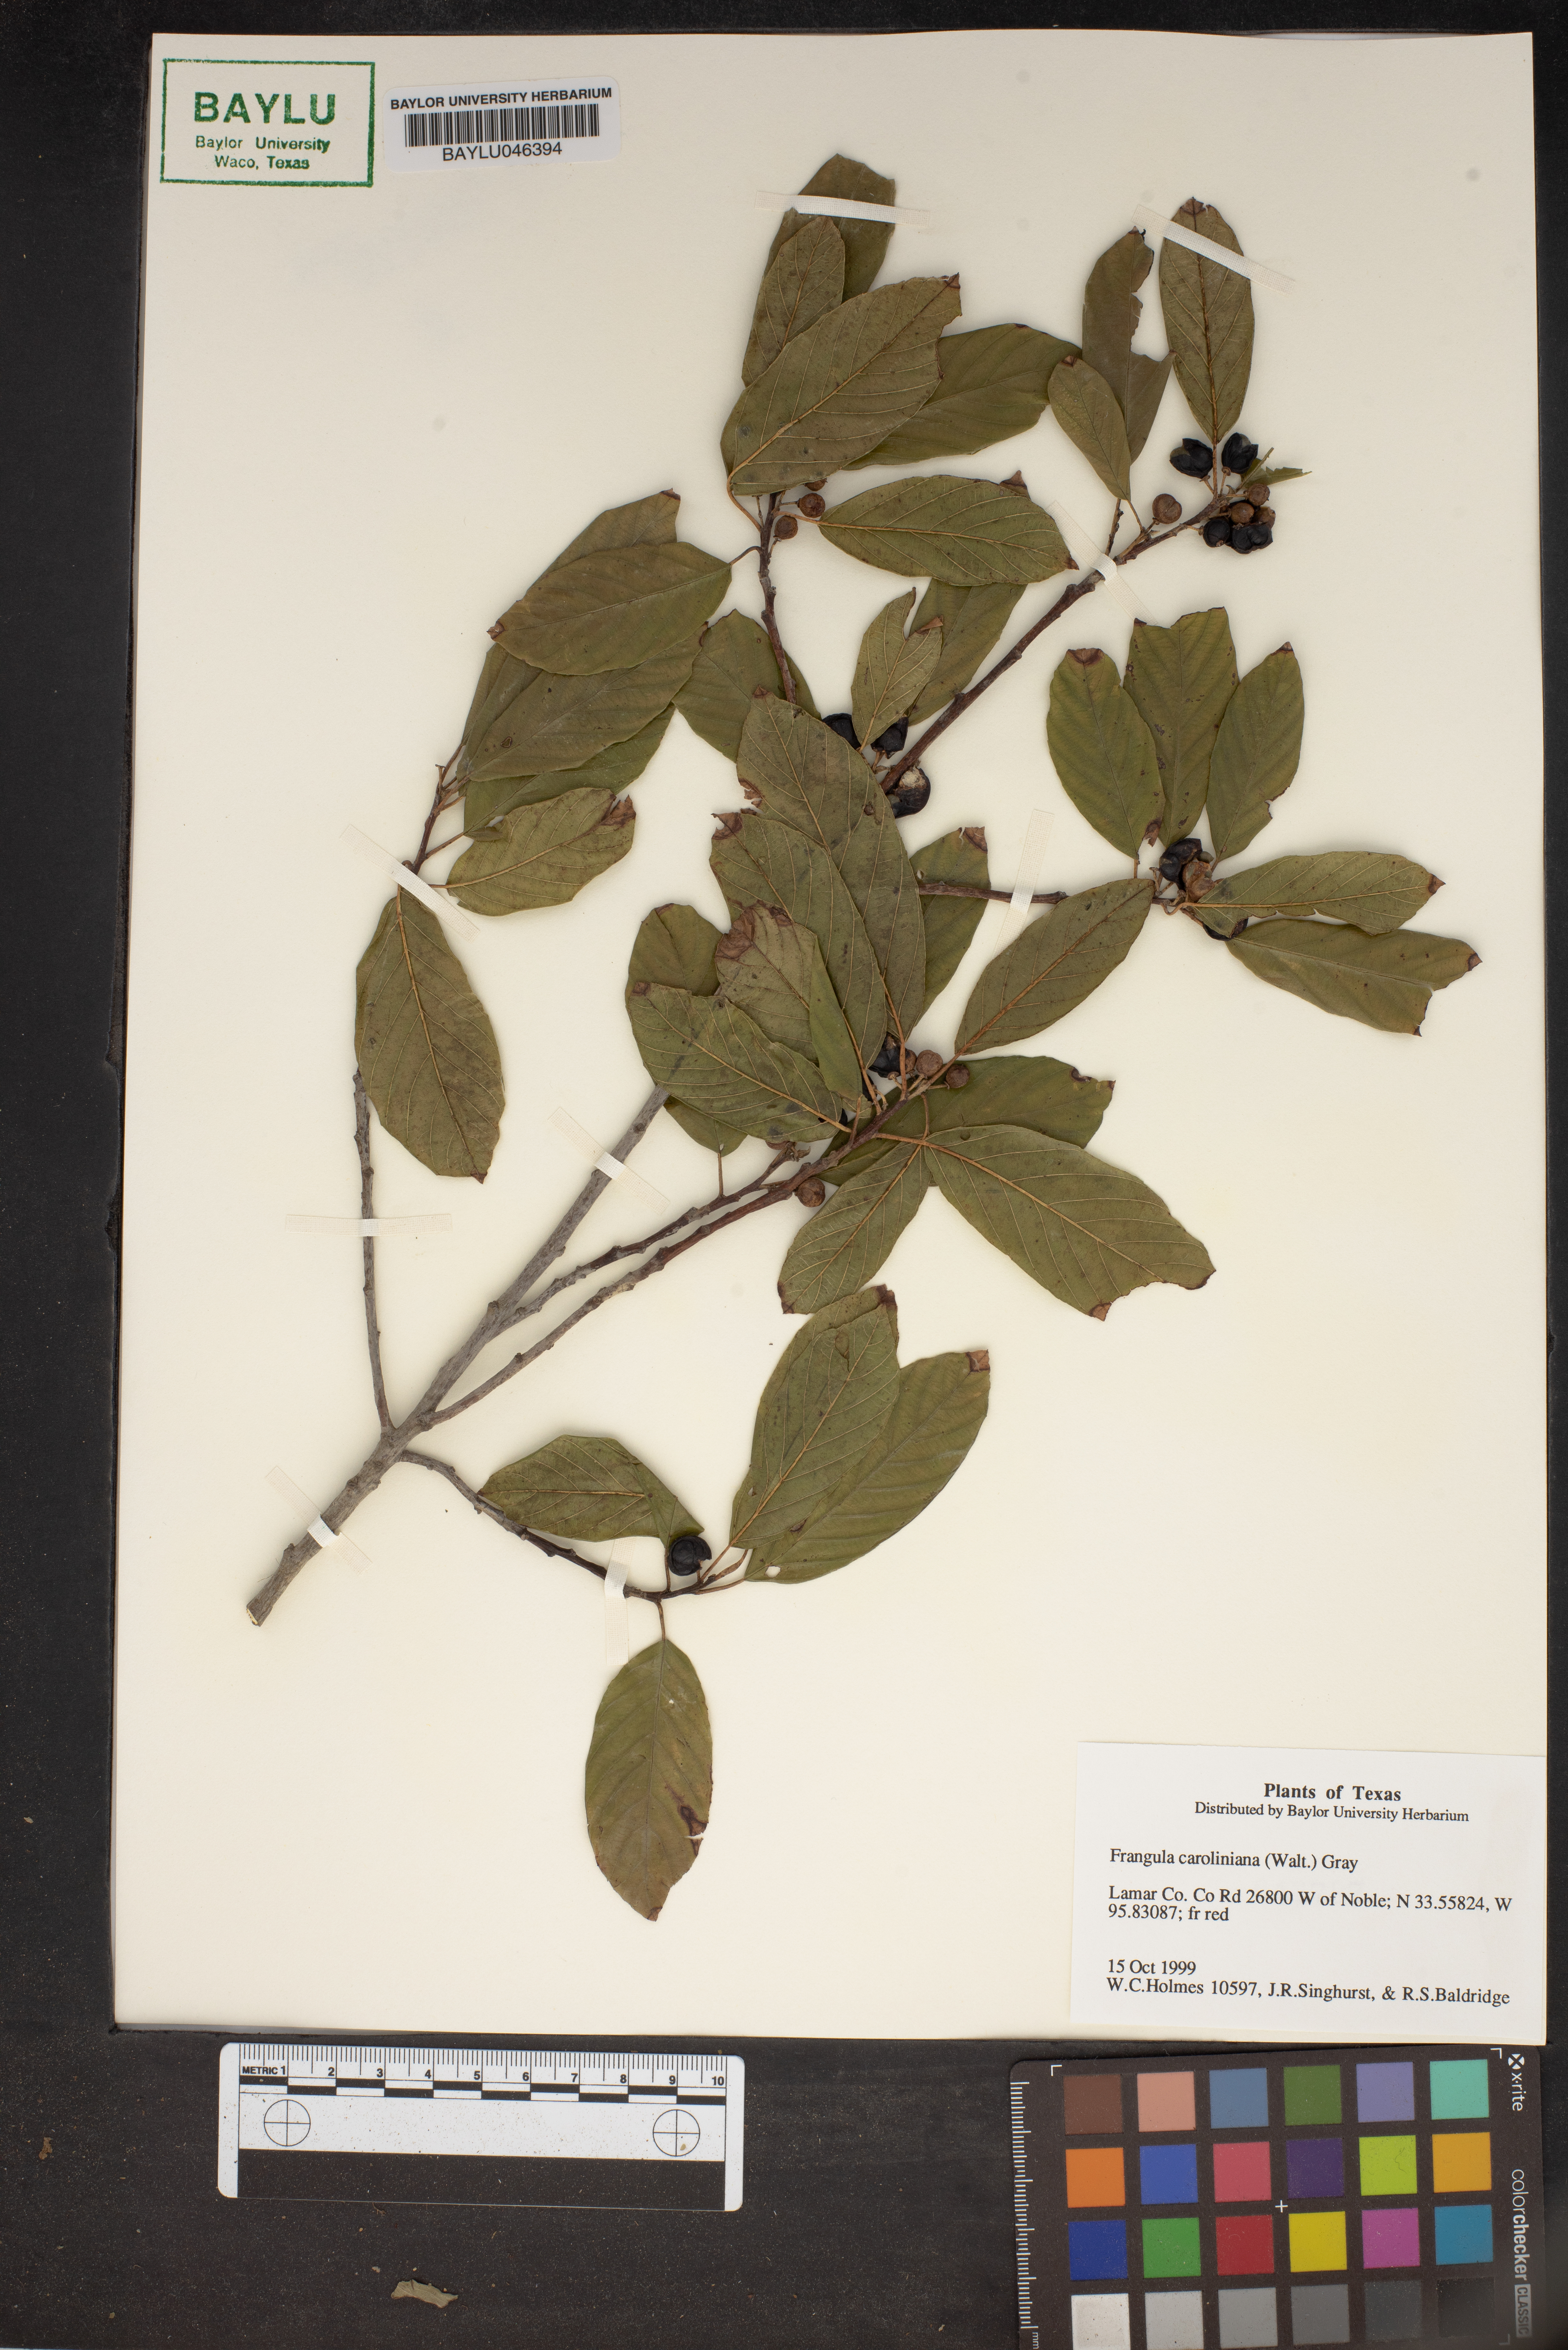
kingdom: Plantae
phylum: Tracheophyta
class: Magnoliopsida
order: Rosales
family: Rhamnaceae
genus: Frangula
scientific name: Frangula caroliniana
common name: Carolina buckthorn
